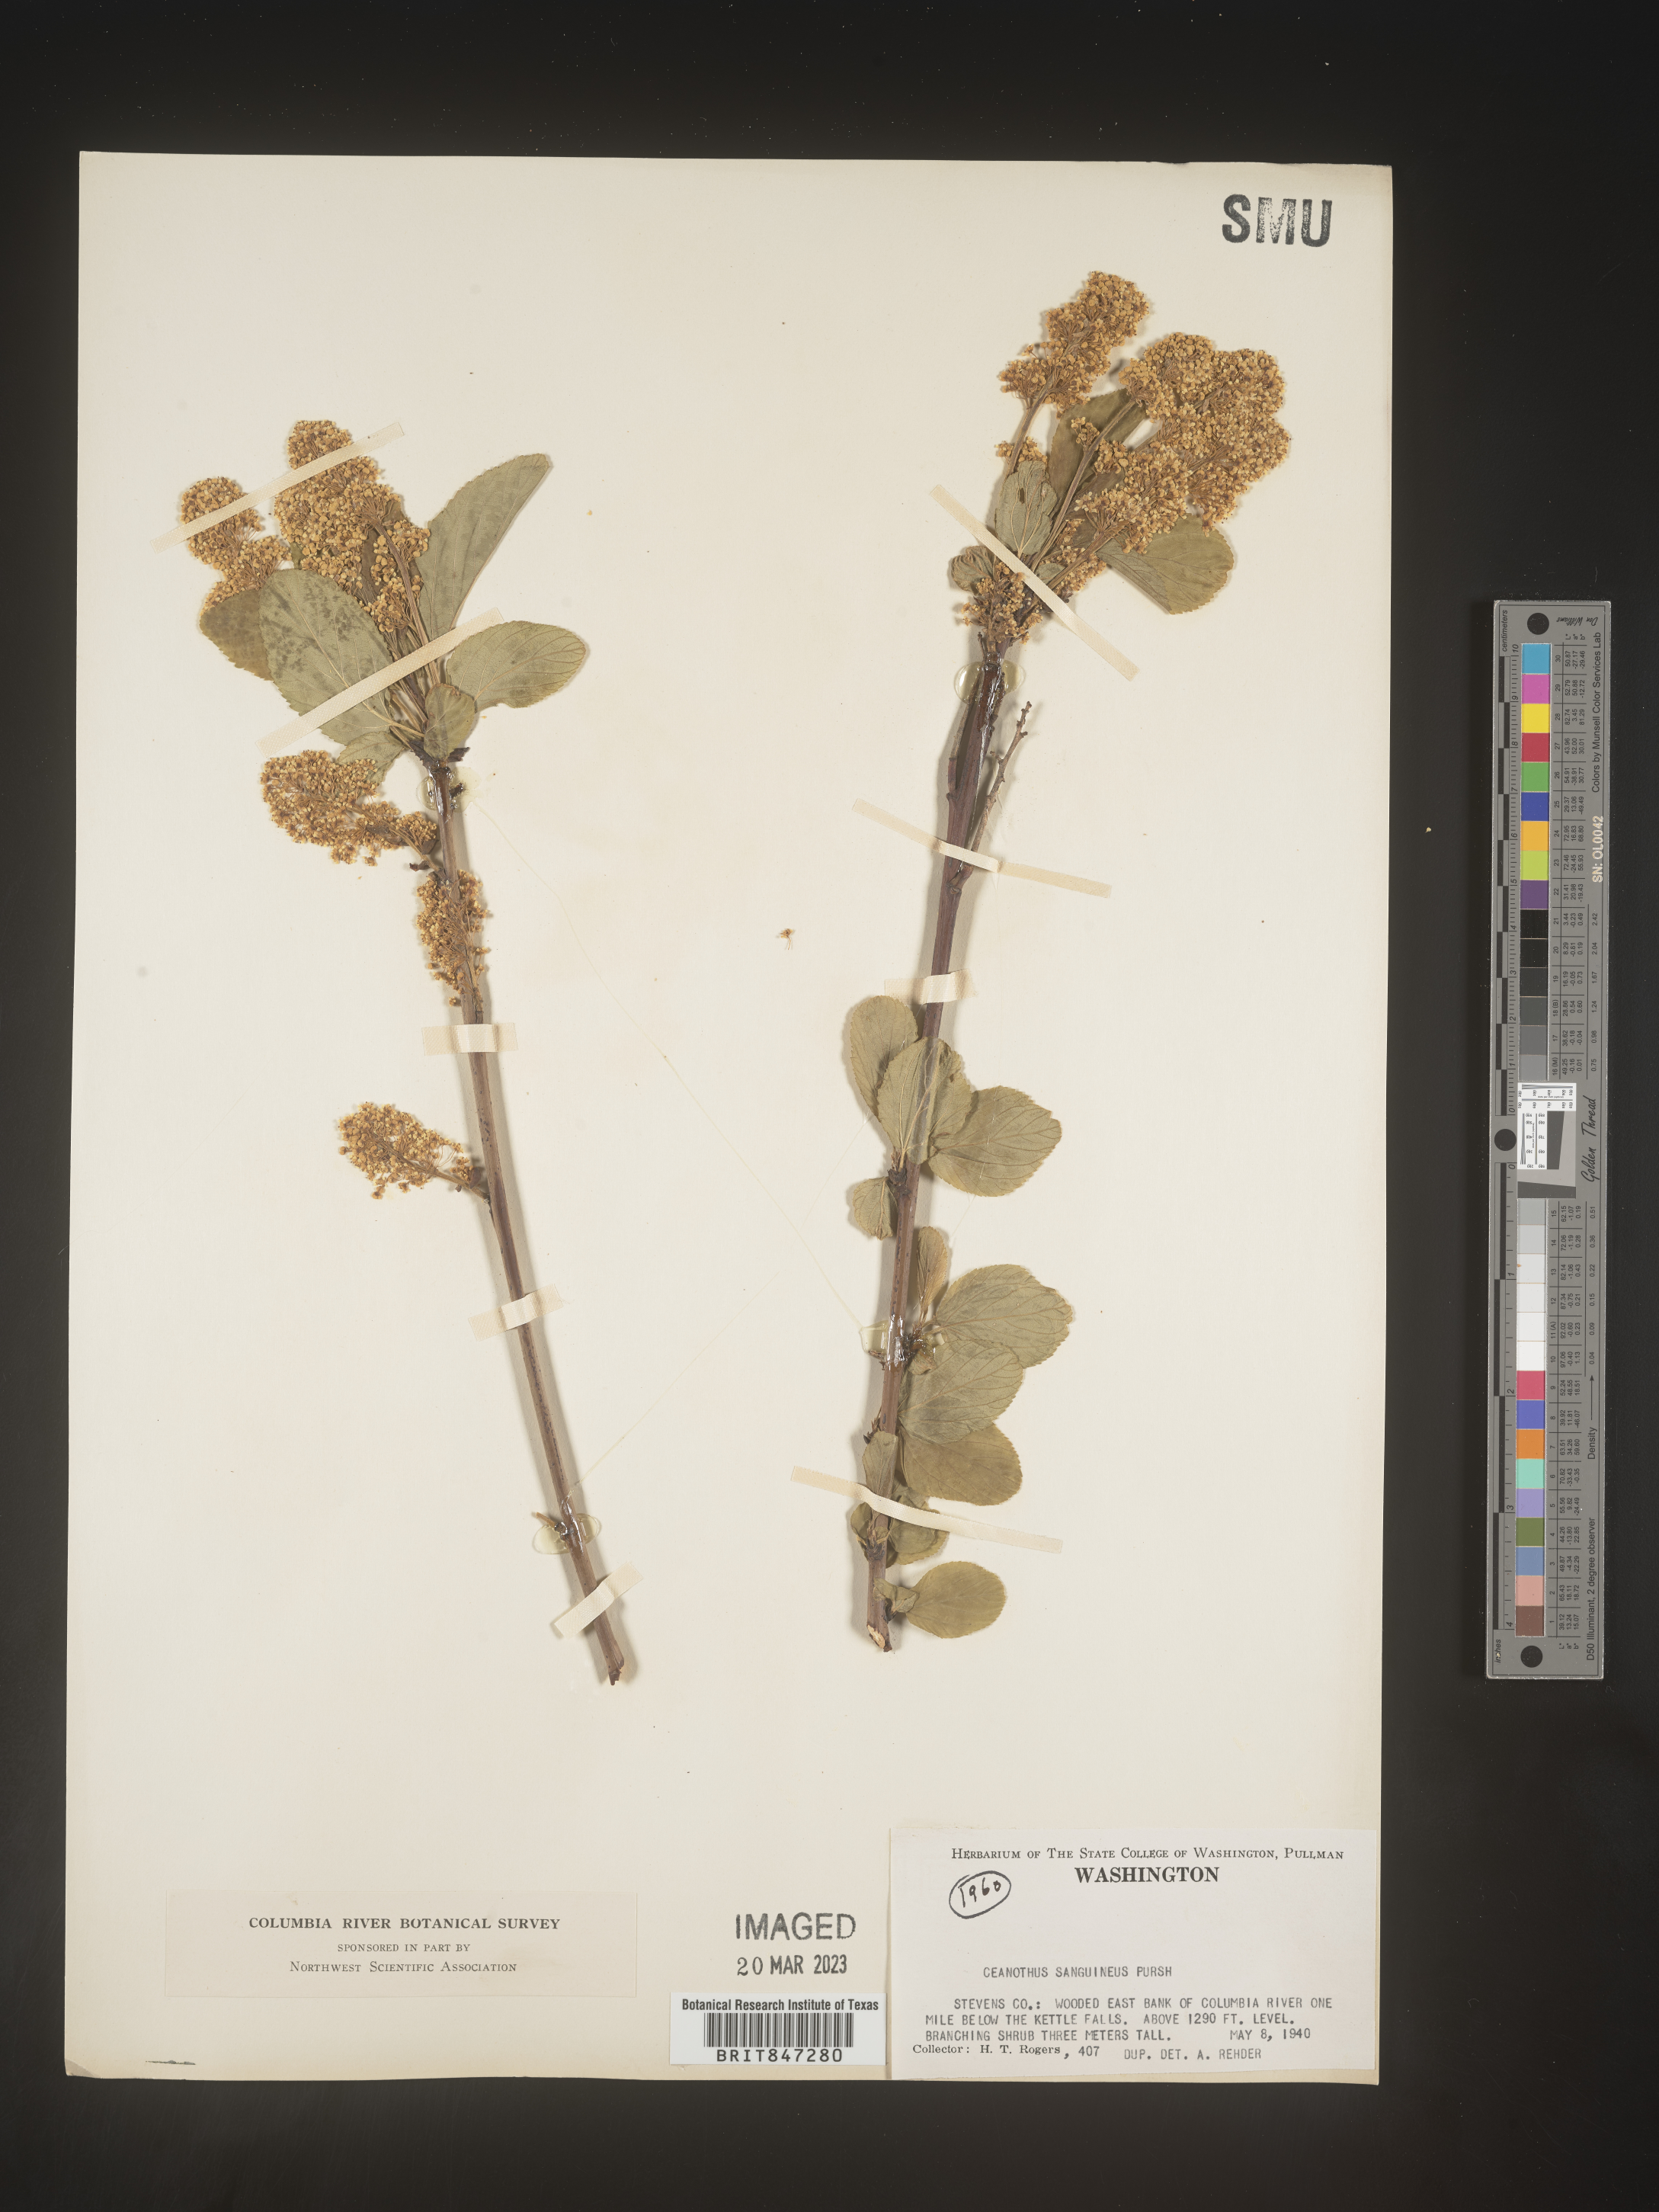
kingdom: Plantae
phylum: Tracheophyta
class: Magnoliopsida
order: Rosales
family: Rhamnaceae
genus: Ceanothus
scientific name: Ceanothus
